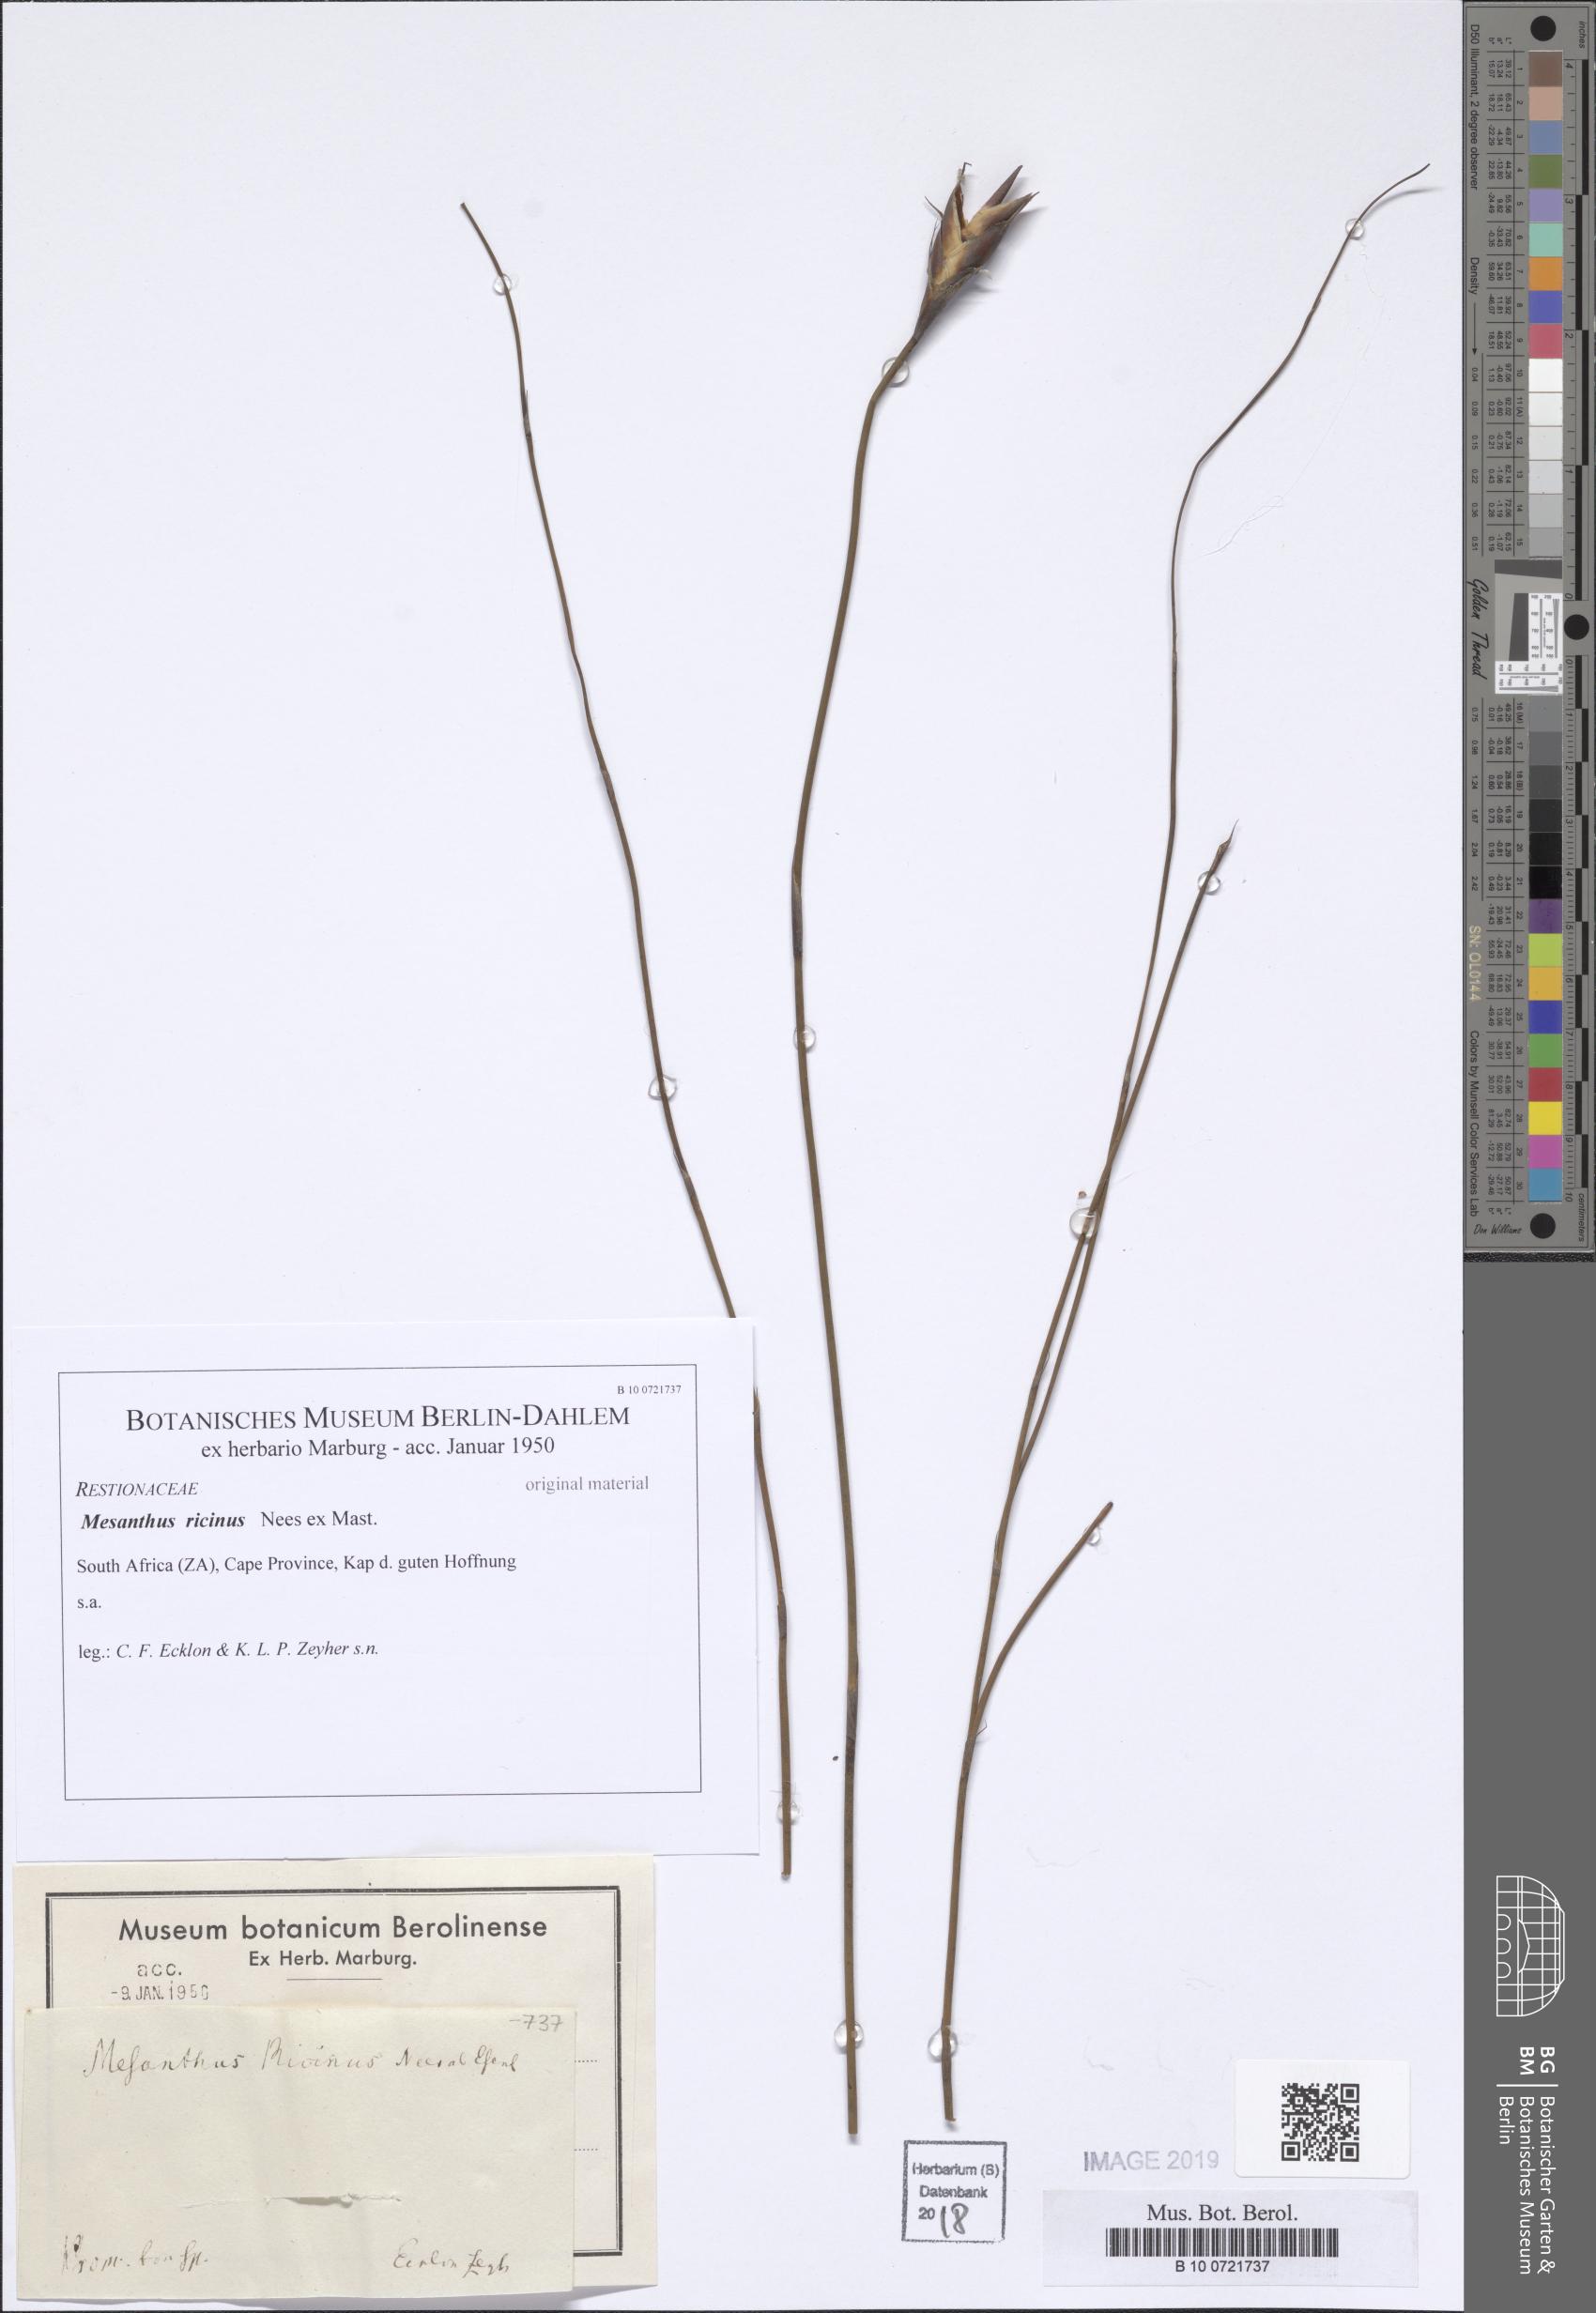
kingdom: Plantae
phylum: Tracheophyta
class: Liliopsida
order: Poales
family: Restionaceae
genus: Cannomois
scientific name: Cannomois scirpoides
